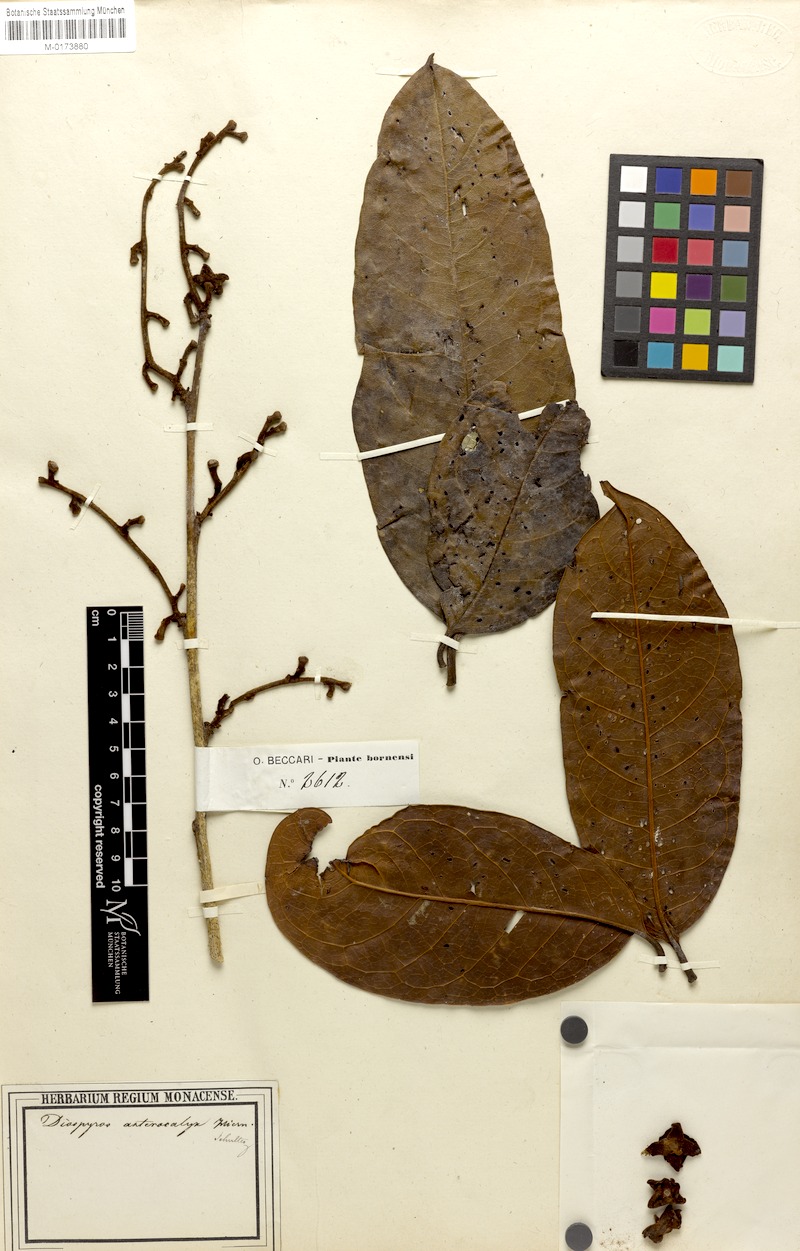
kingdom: Plantae
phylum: Tracheophyta
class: Magnoliopsida
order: Ericales
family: Ebenaceae
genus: Diospyros
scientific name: Diospyros pyrrhocarpa
